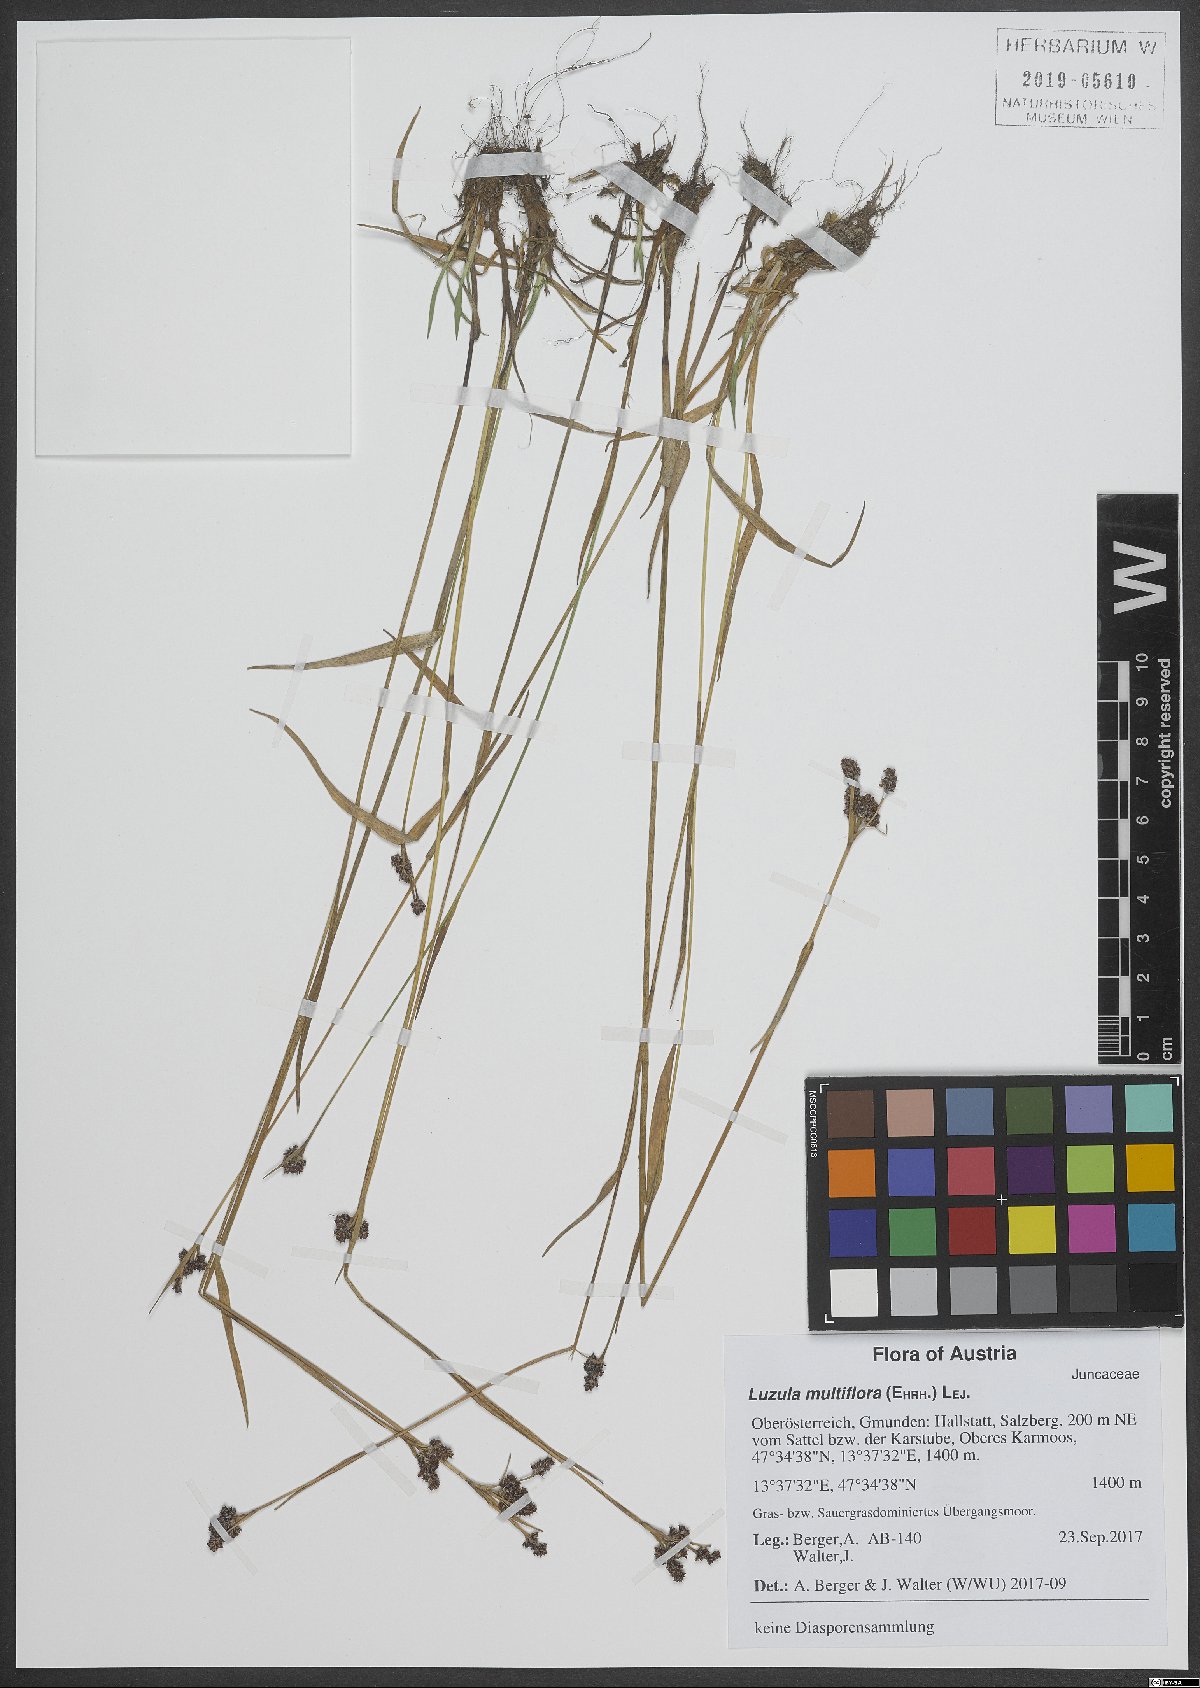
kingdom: Plantae
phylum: Tracheophyta
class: Liliopsida
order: Poales
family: Juncaceae
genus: Luzula
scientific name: Luzula multiflora
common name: Heath wood-rush
